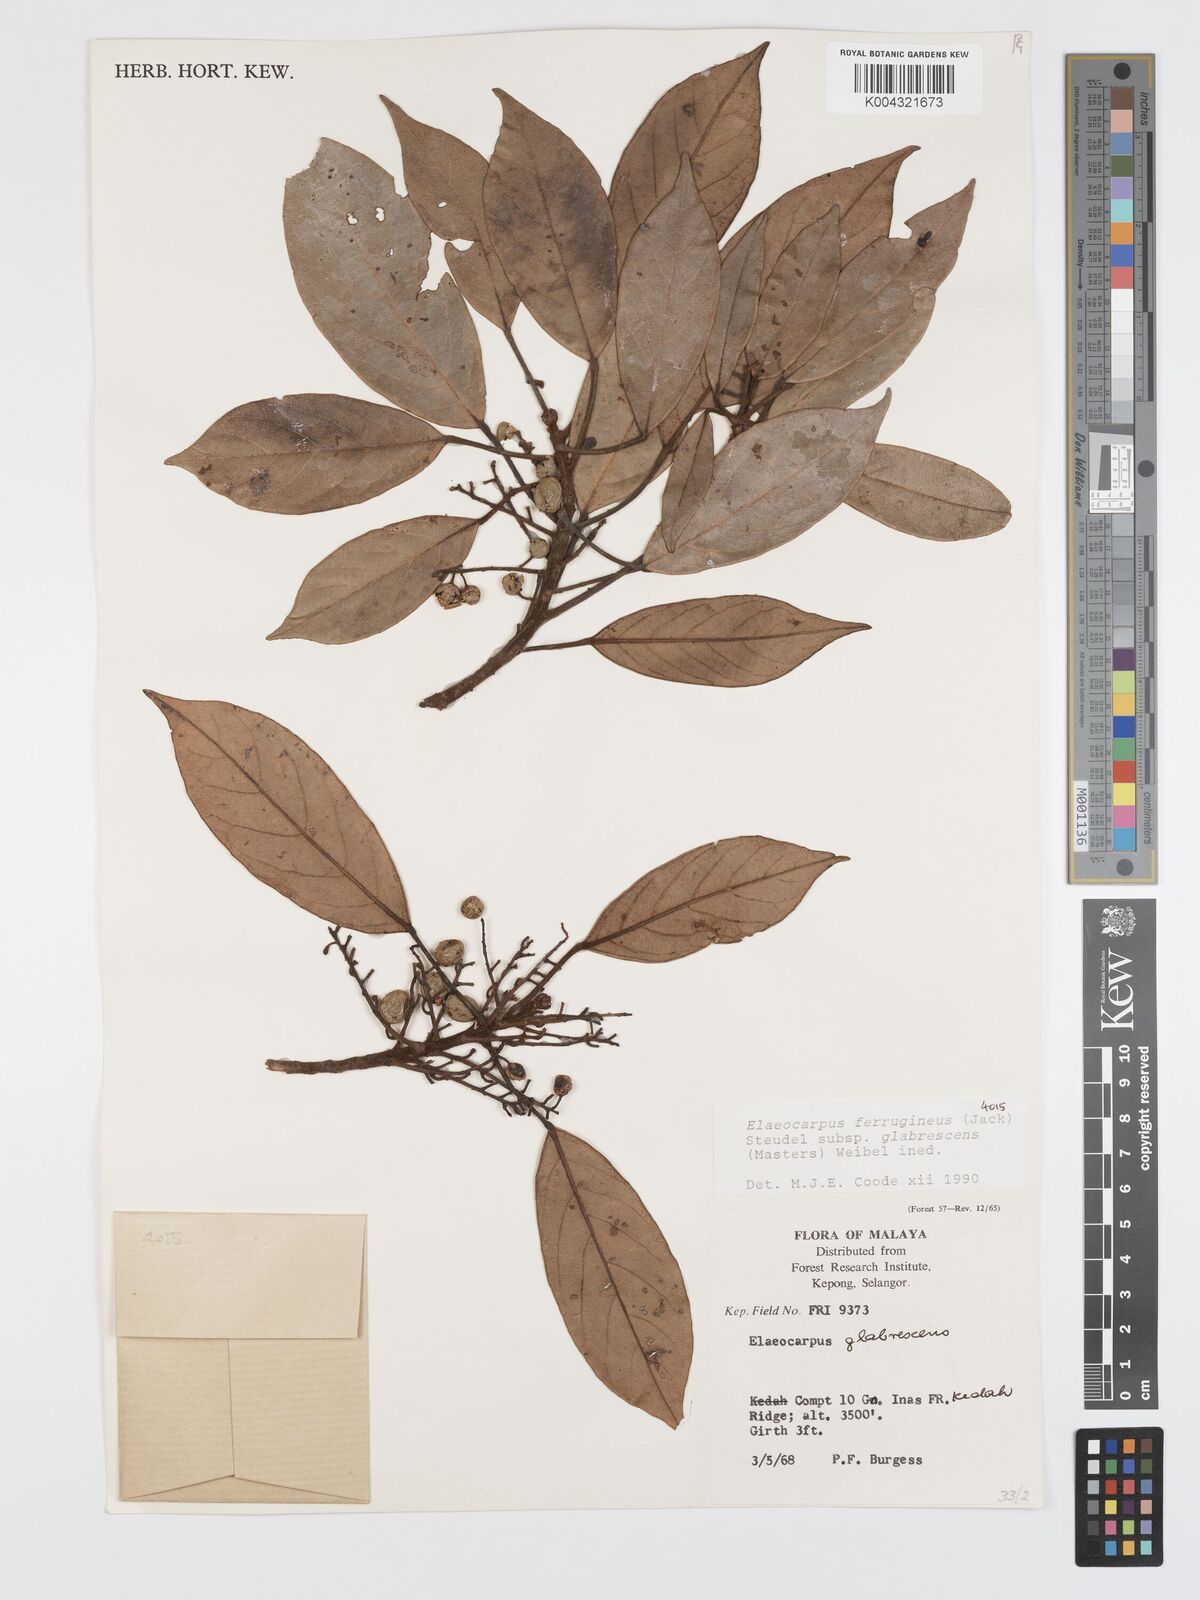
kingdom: Plantae
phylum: Tracheophyta
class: Magnoliopsida
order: Oxalidales
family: Elaeocarpaceae
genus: Elaeocarpus
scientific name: Elaeocarpus ferrugineus
